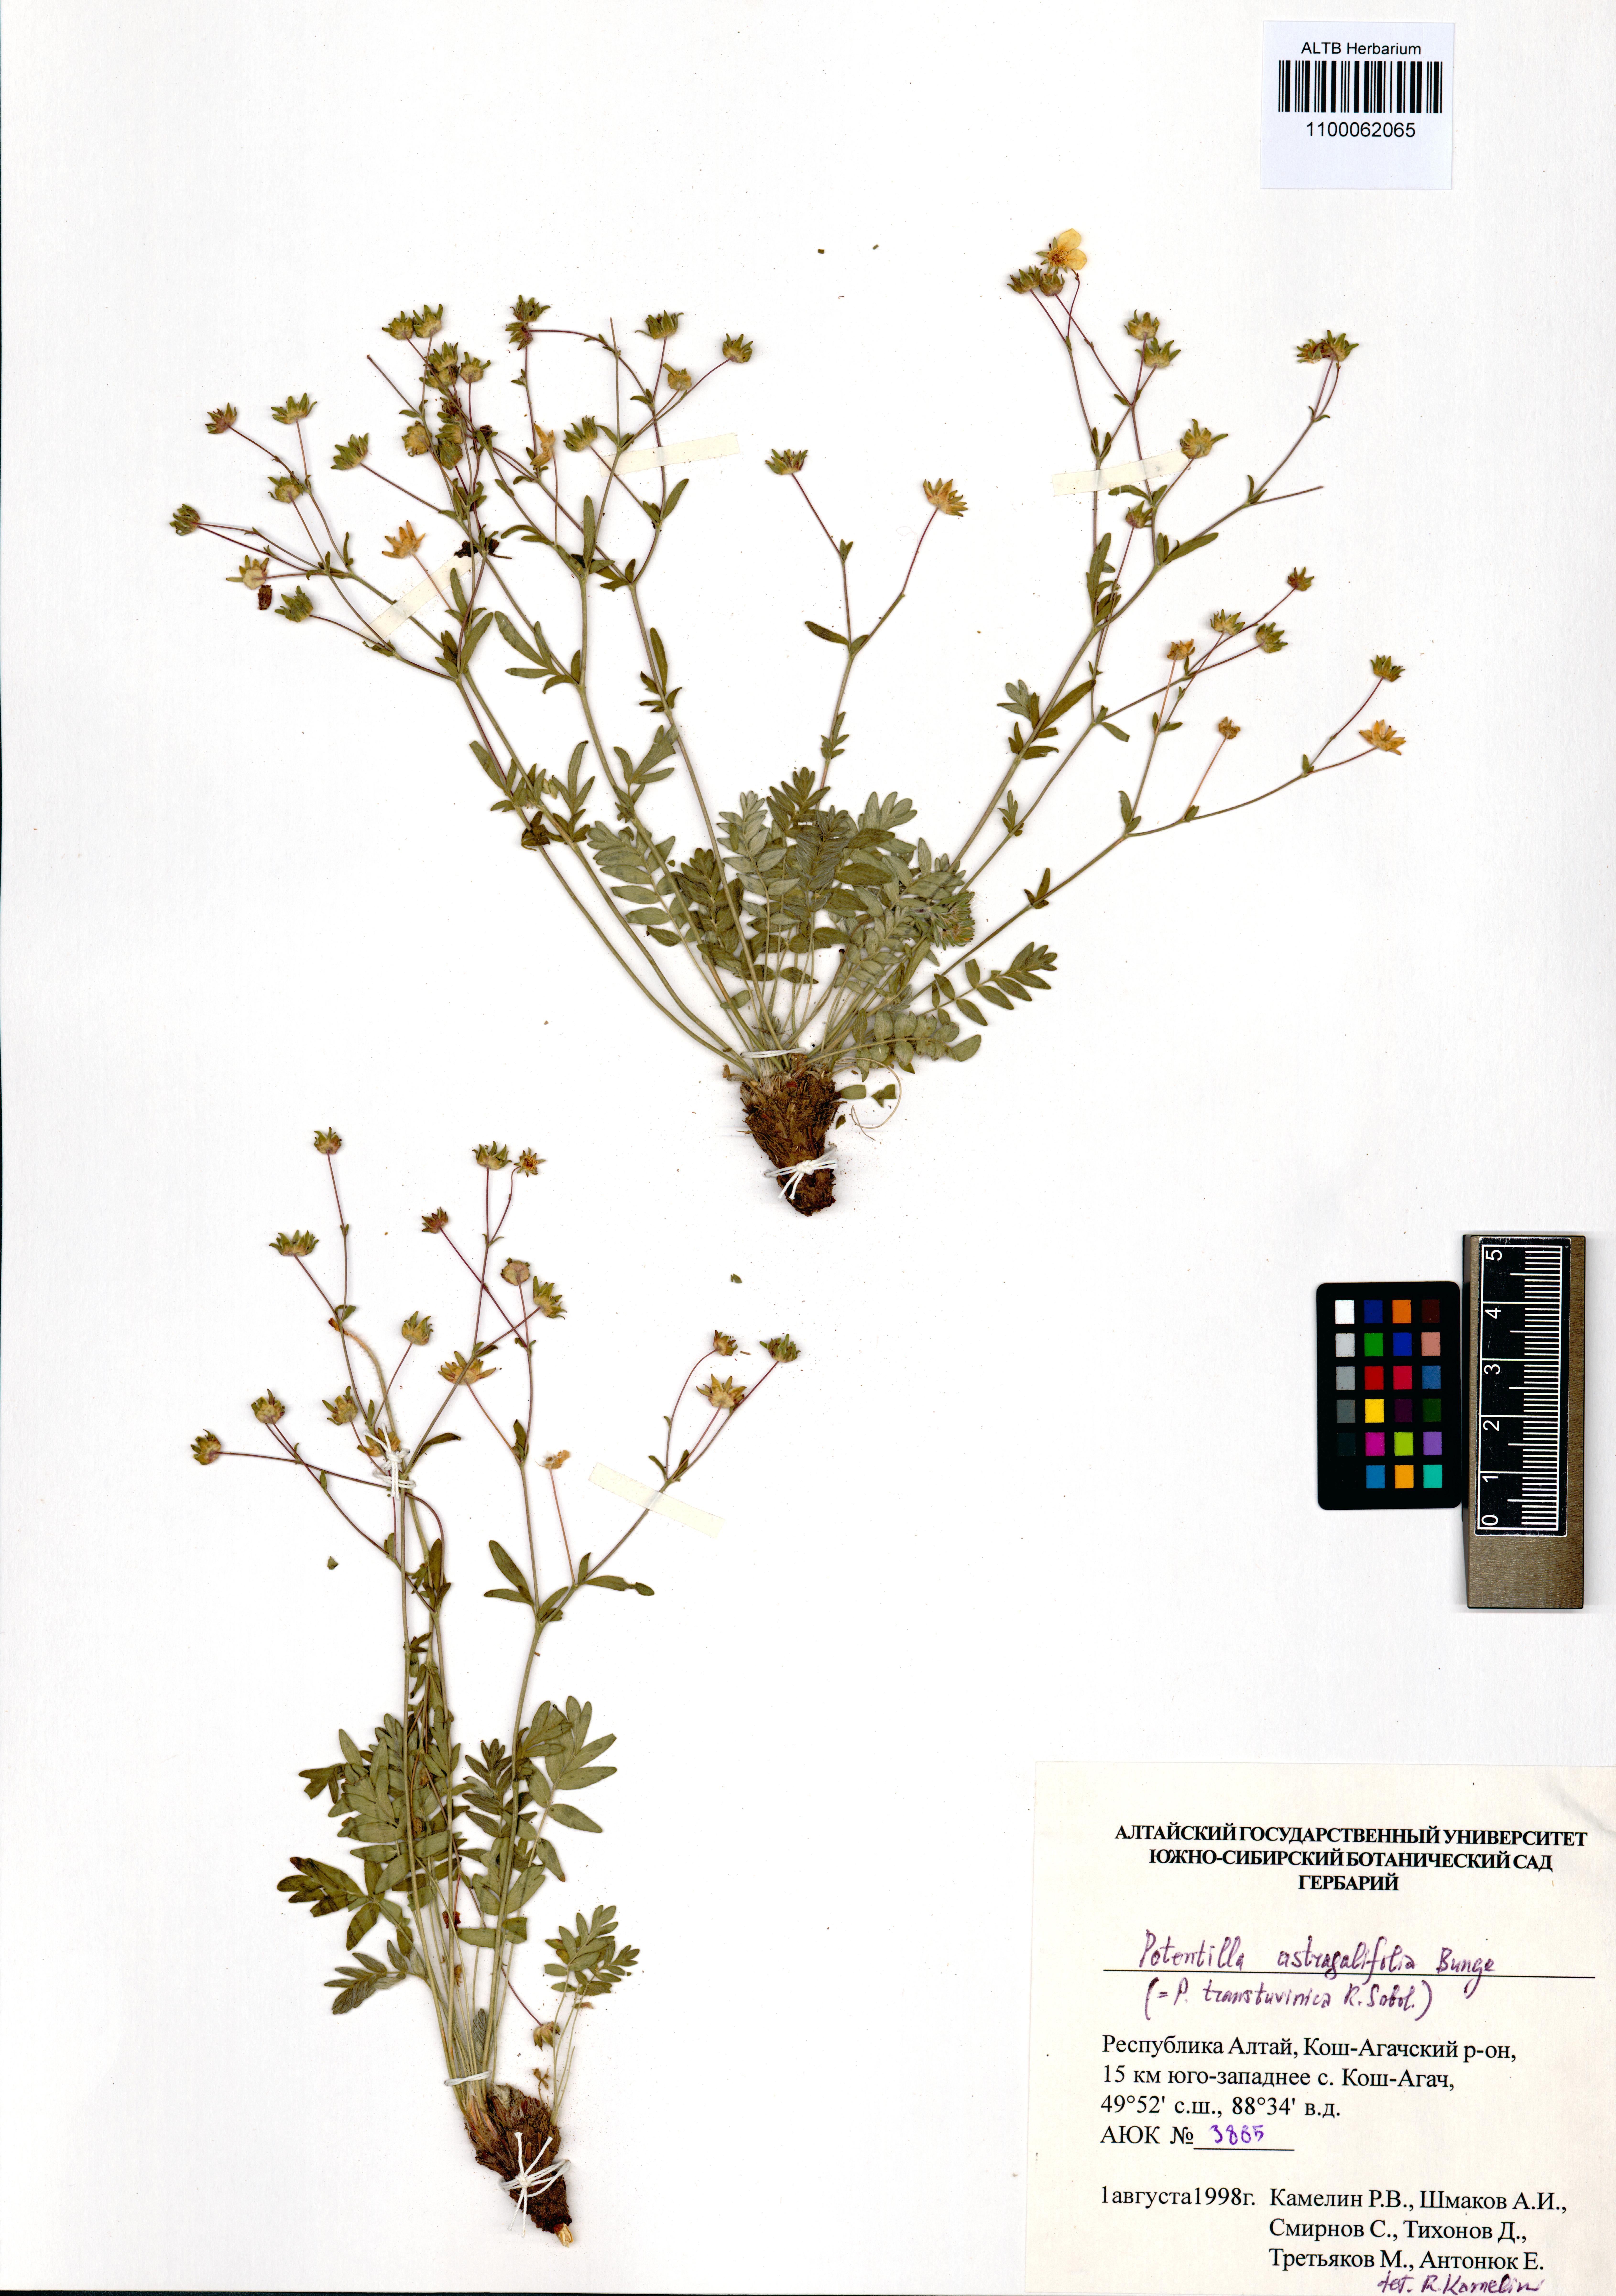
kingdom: Plantae
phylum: Tracheophyta
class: Magnoliopsida
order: Rosales
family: Rosaceae
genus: Potentilla
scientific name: Potentilla astragalifolia
